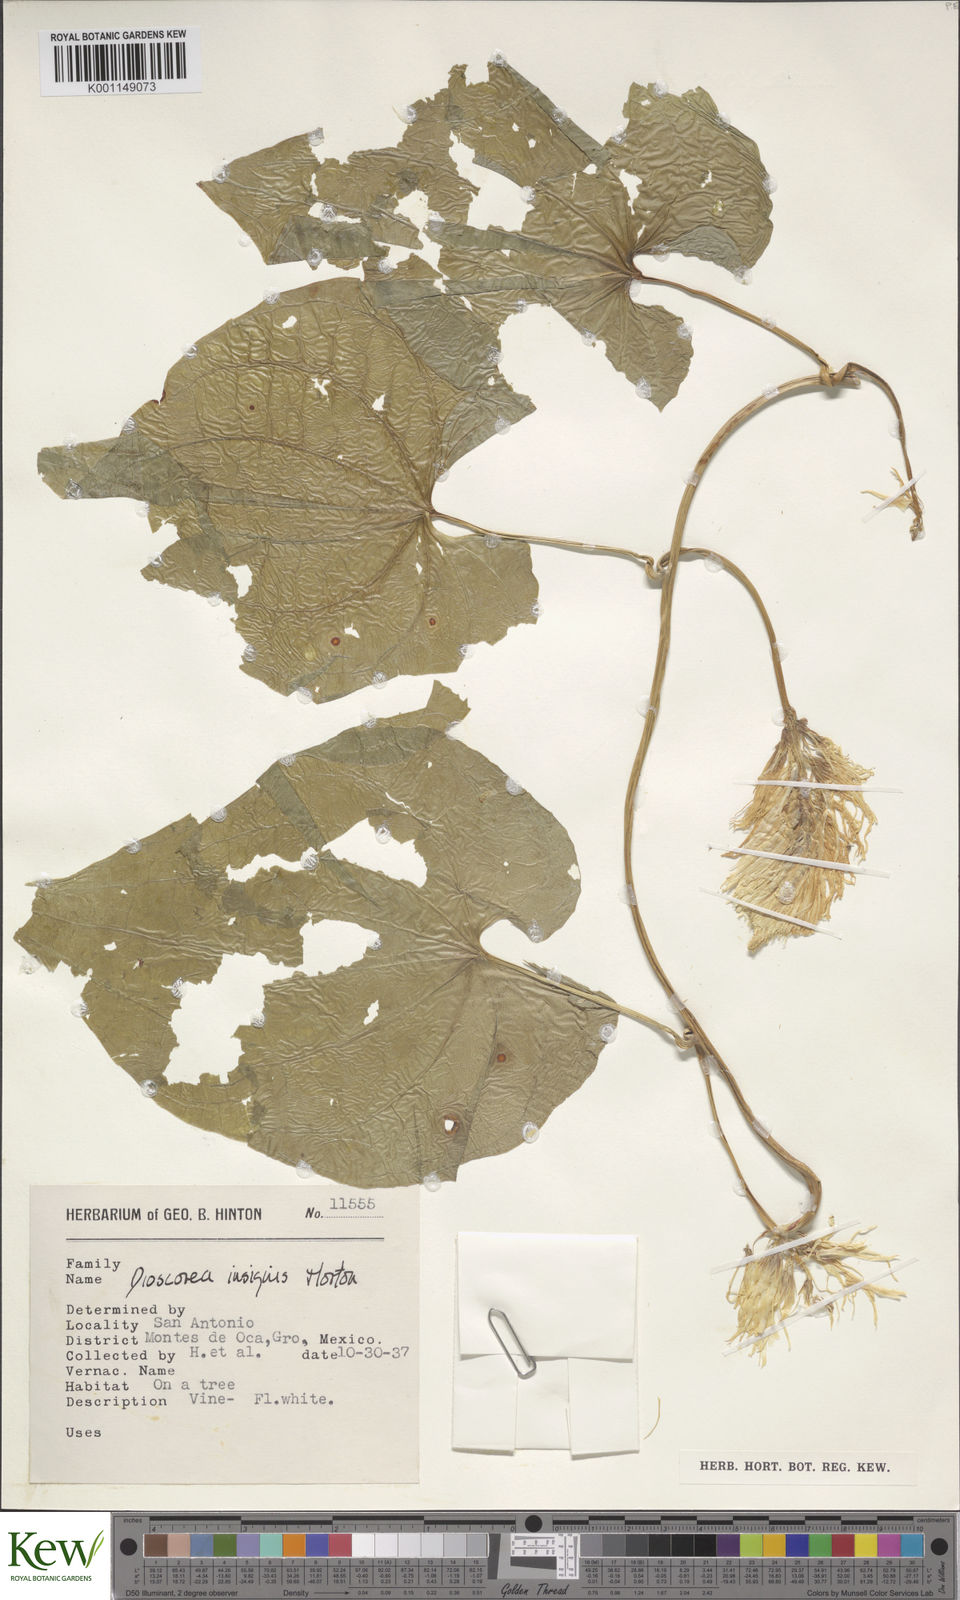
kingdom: Plantae
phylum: Tracheophyta
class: Liliopsida
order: Dioscoreales
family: Dioscoreaceae
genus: Dioscorea
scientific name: Dioscorea insignis
